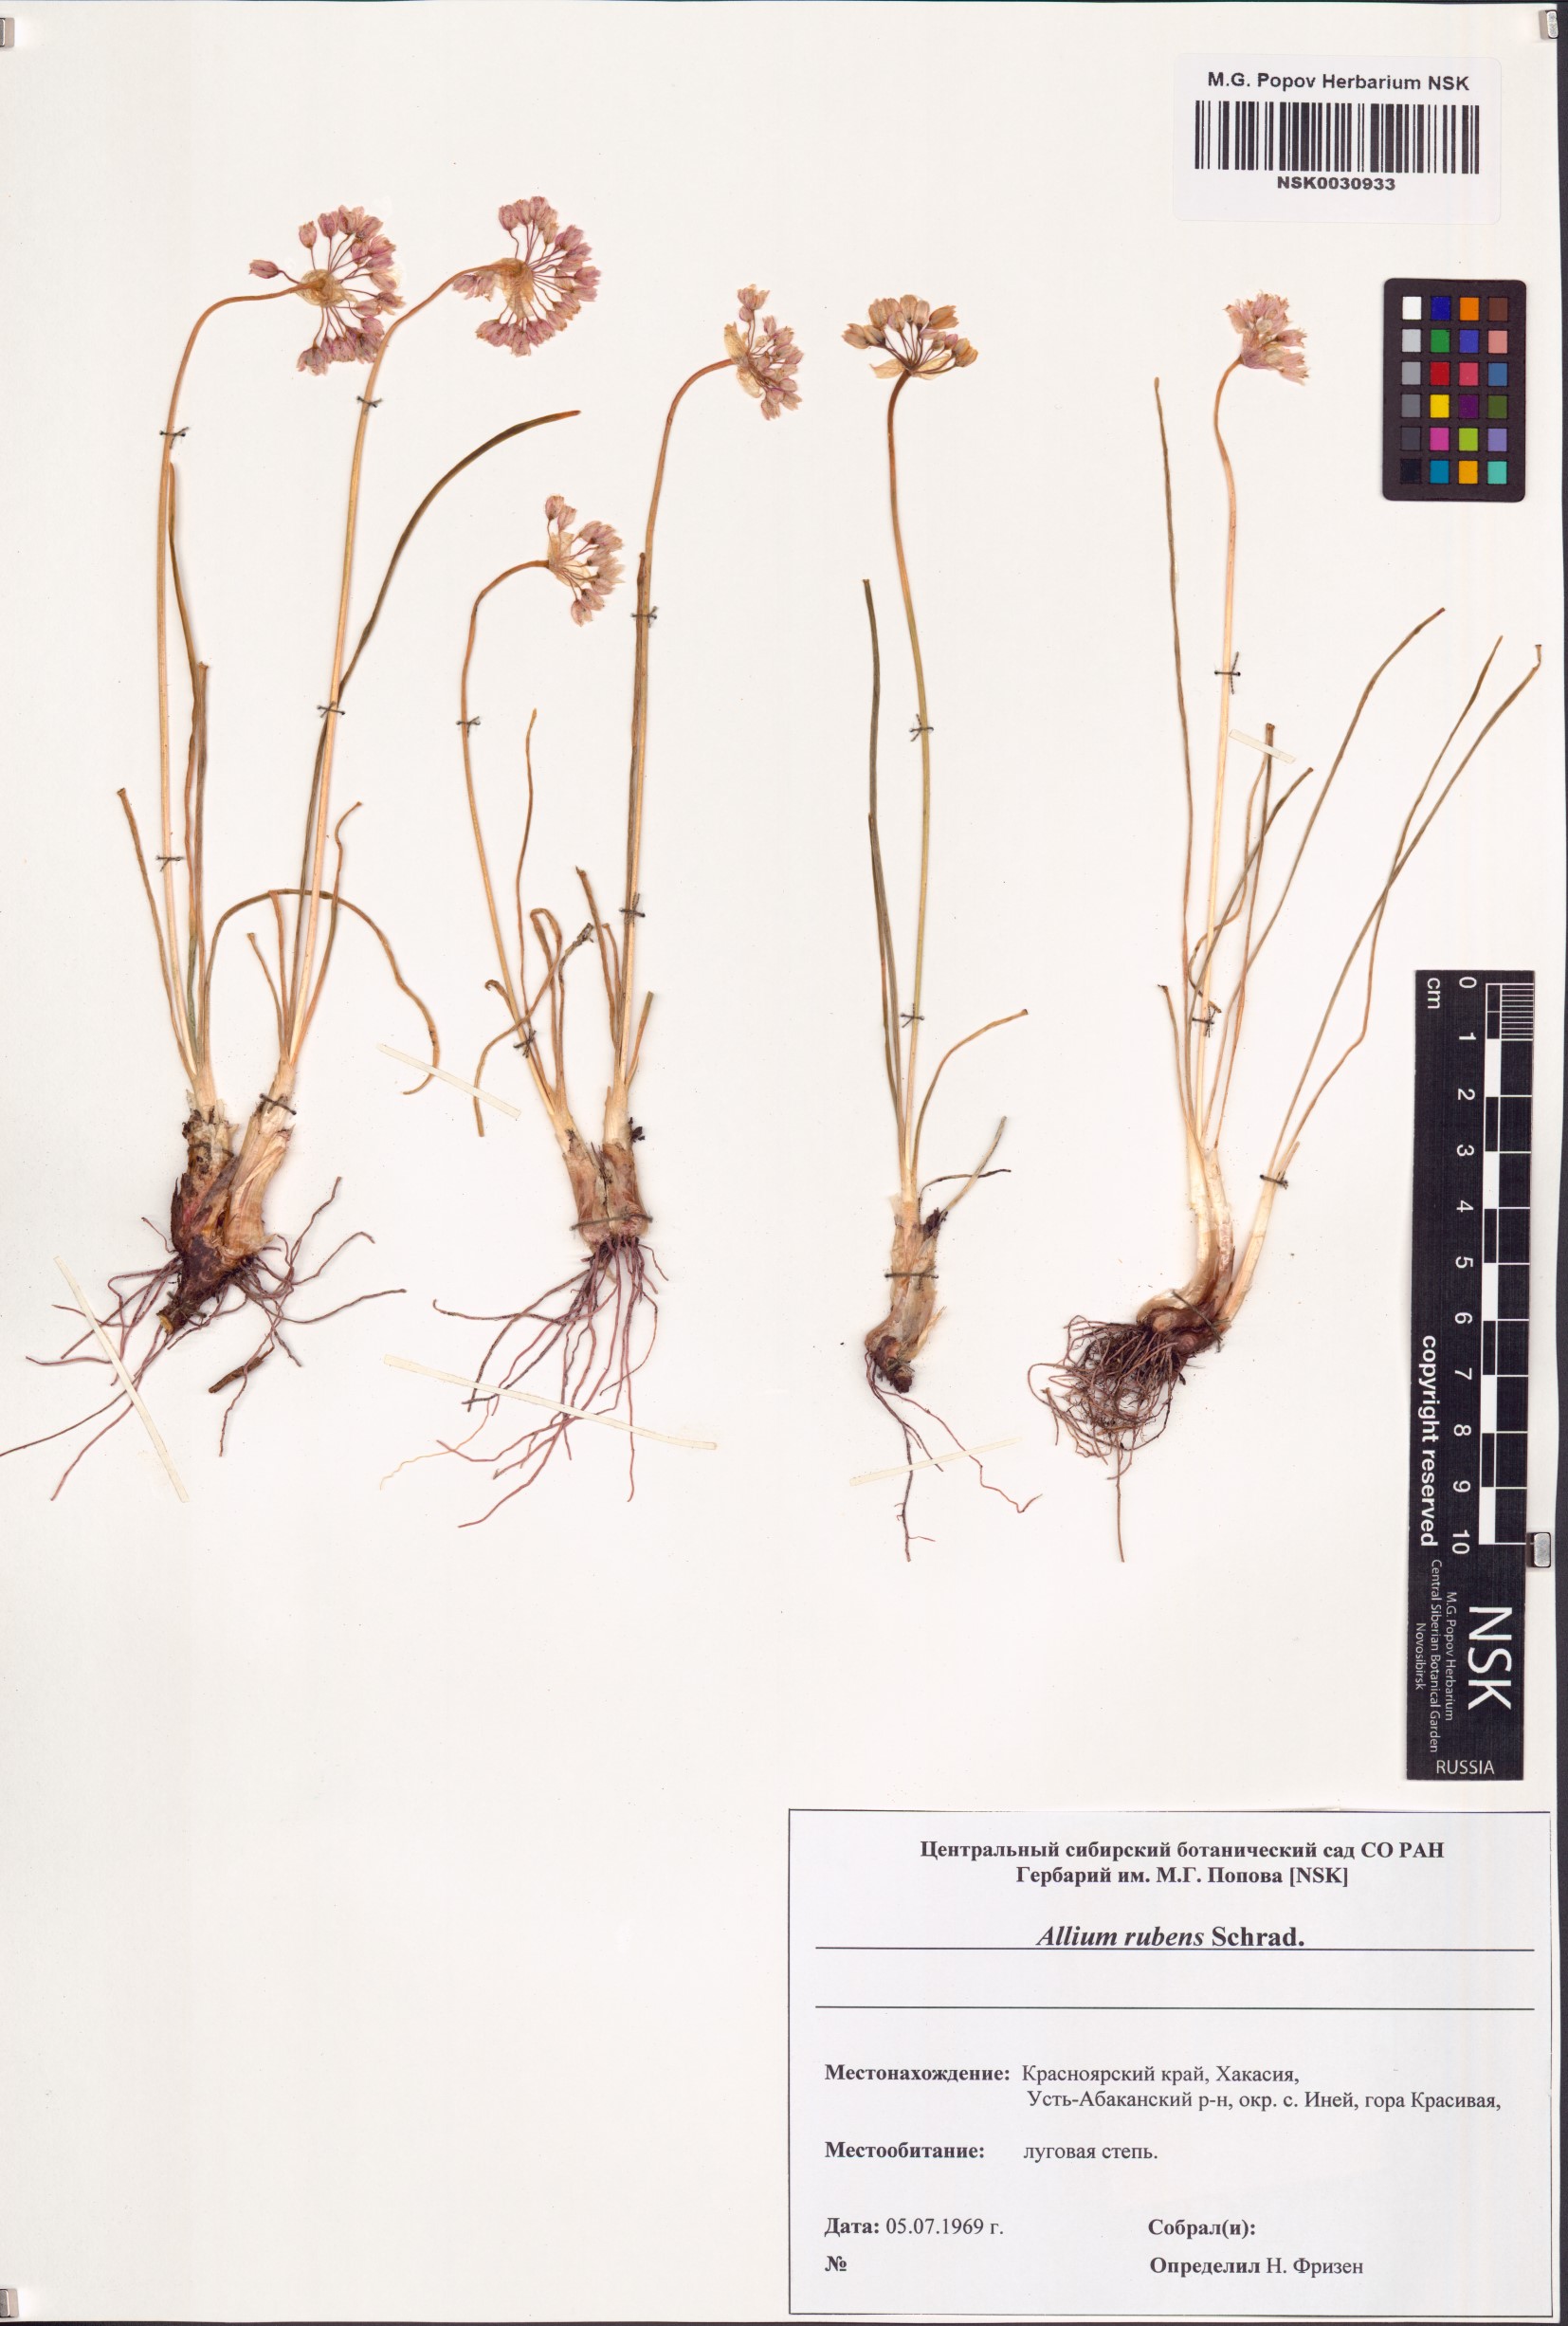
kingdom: Plantae
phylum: Tracheophyta
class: Liliopsida
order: Asparagales
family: Amaryllidaceae
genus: Allium
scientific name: Allium rubens
